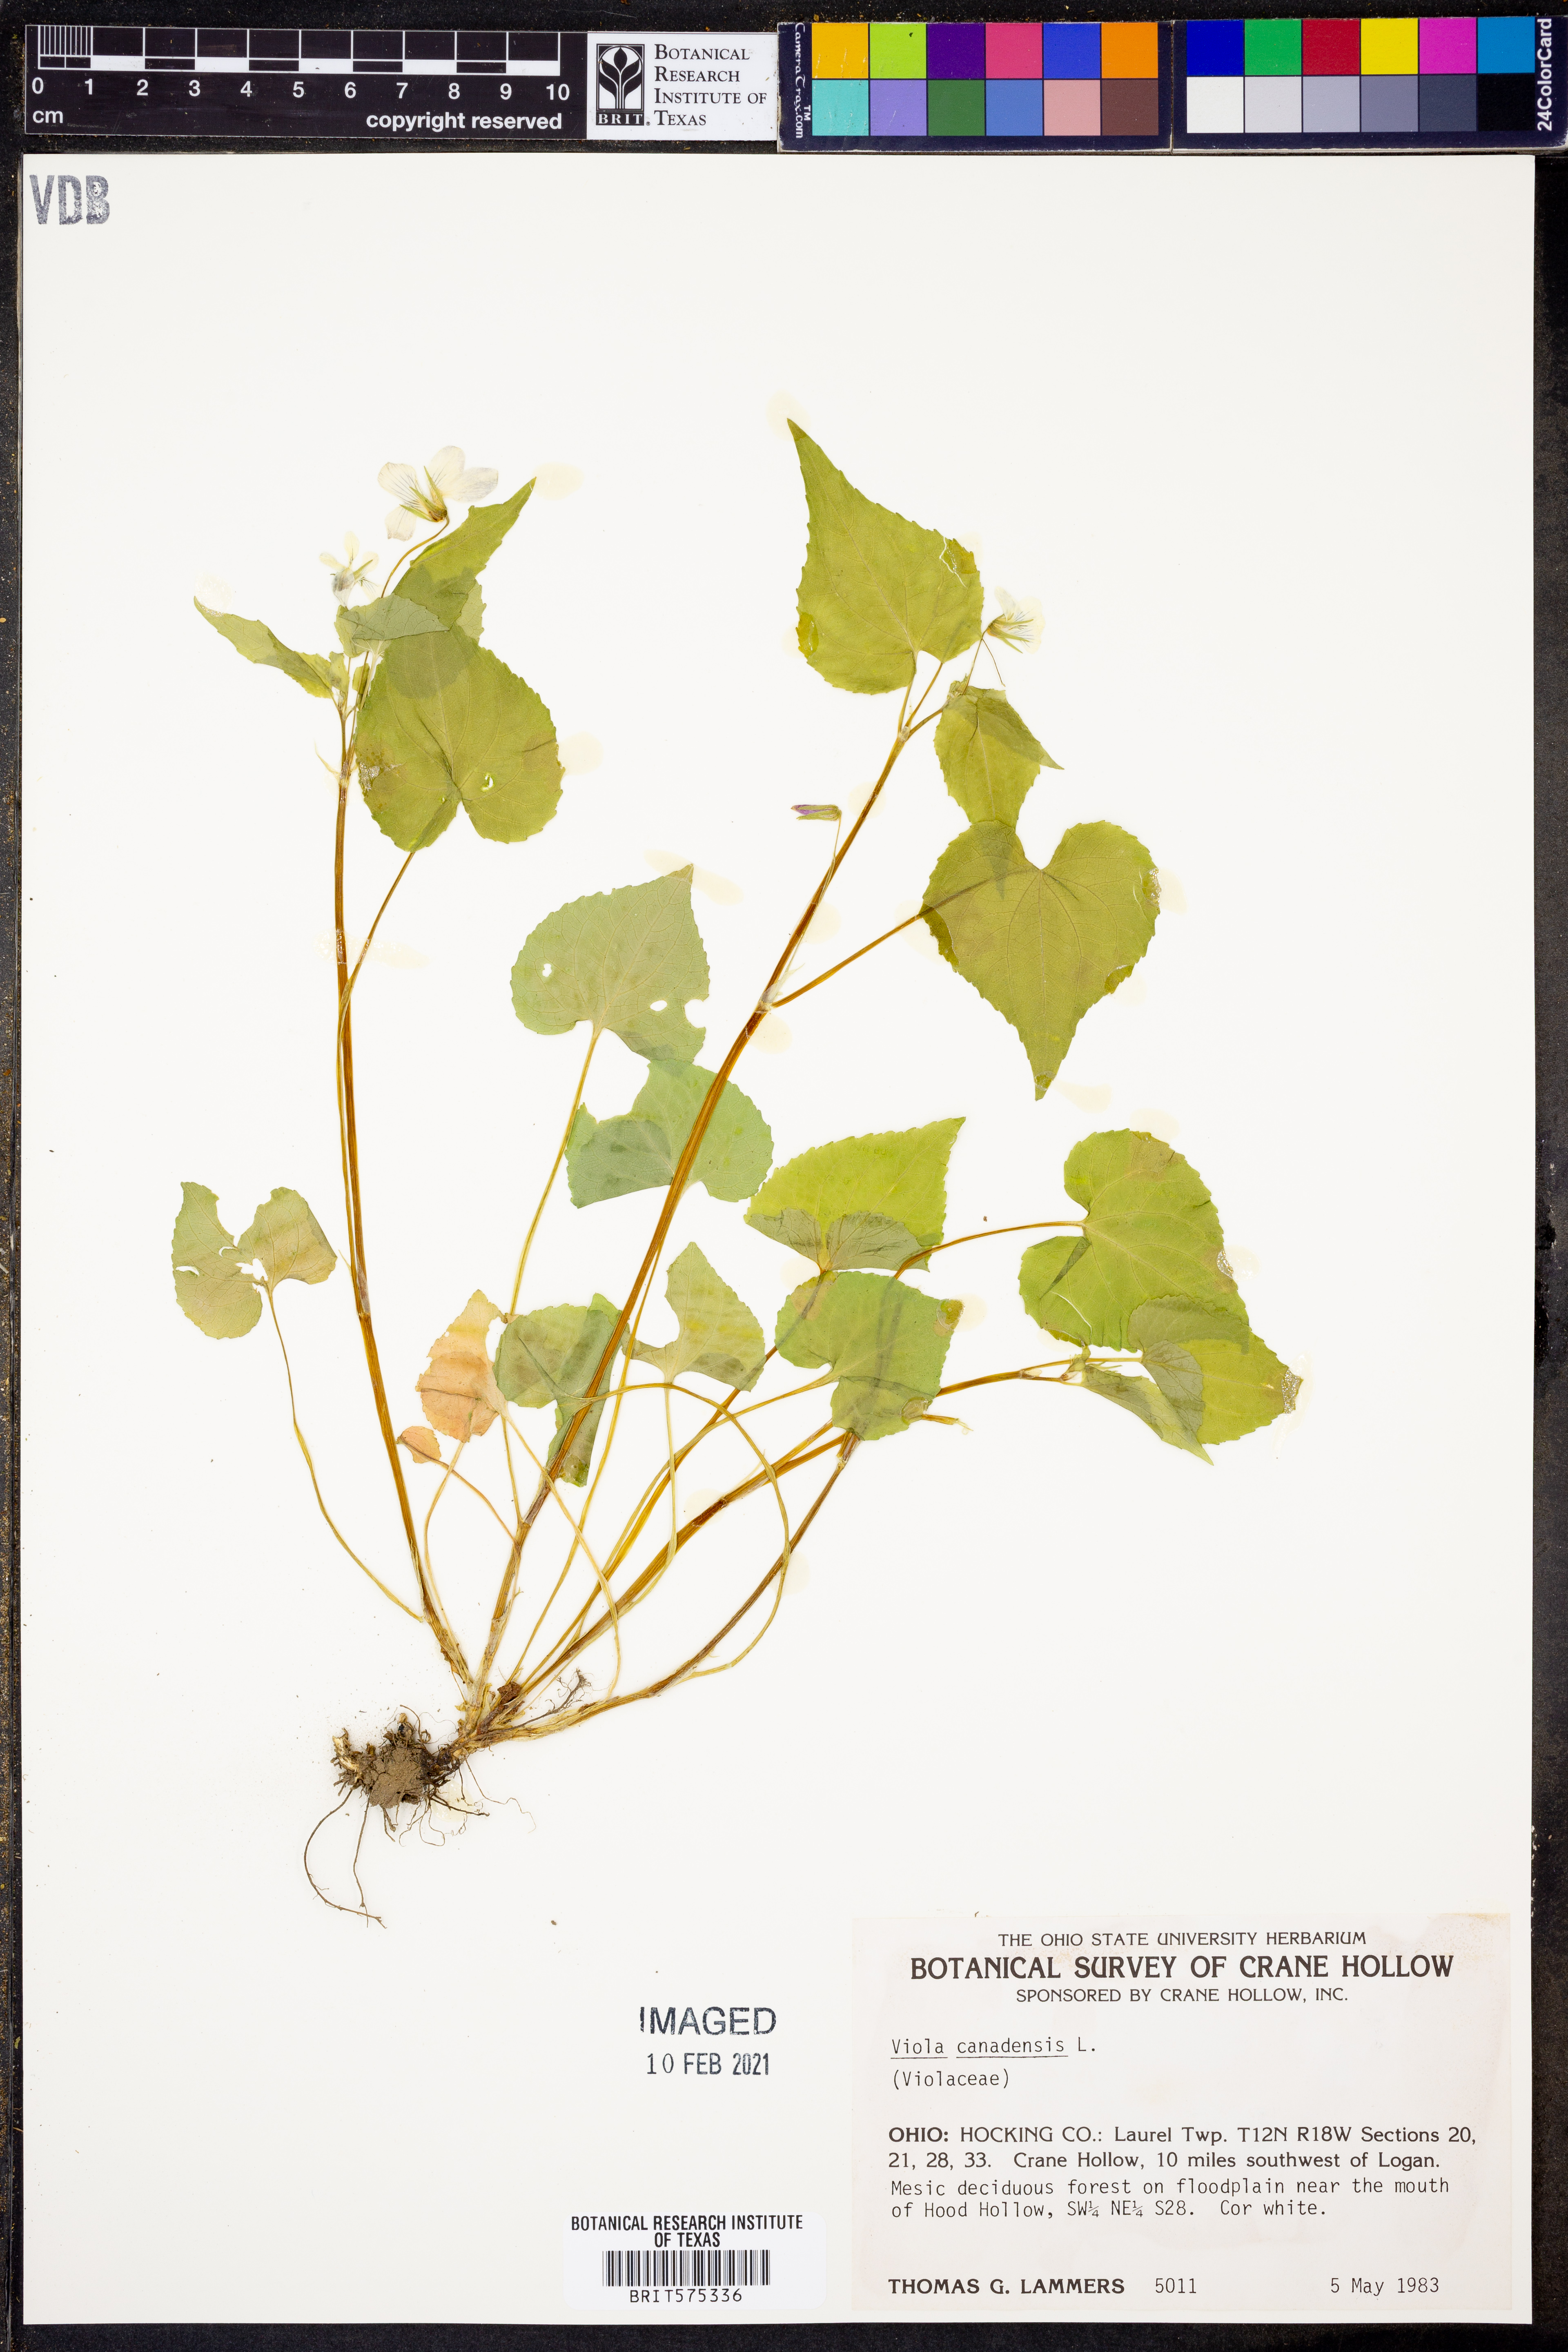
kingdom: Plantae
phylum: Tracheophyta
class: Magnoliopsida
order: Malpighiales
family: Violaceae
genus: Viola
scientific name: Viola canadensis
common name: Canada violet
